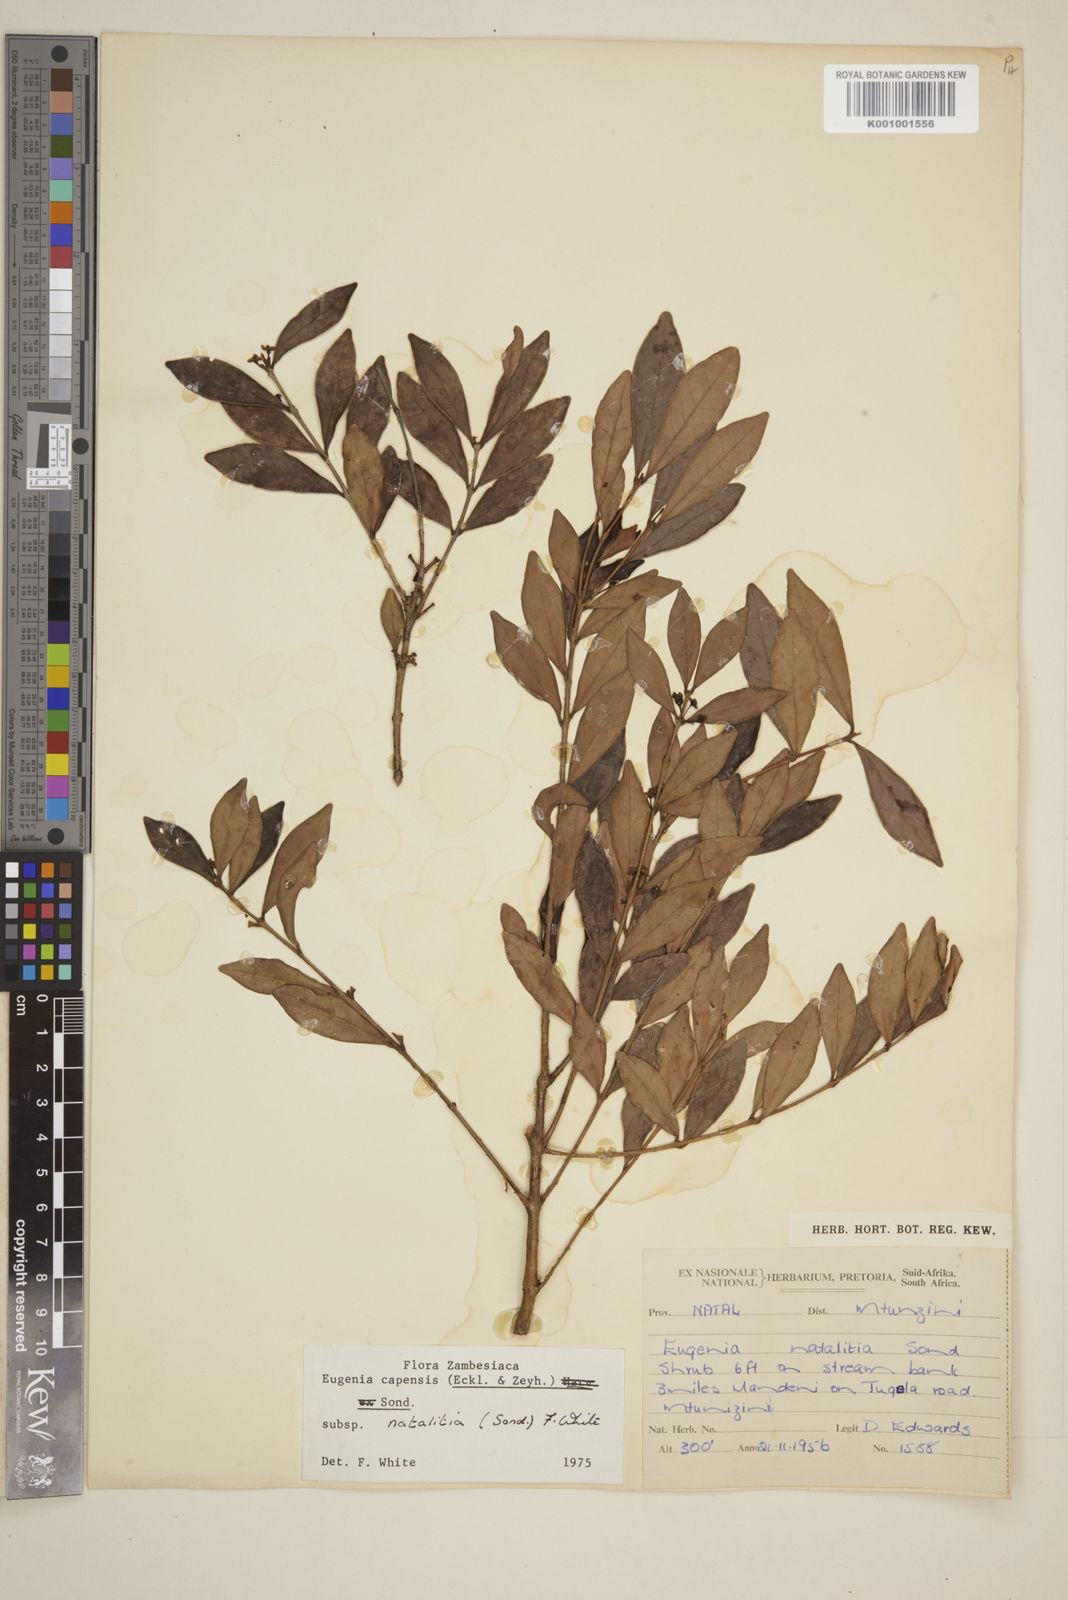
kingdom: Plantae
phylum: Tracheophyta
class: Magnoliopsida
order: Myrtales
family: Myrtaceae
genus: Eugenia
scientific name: Eugenia natalitia
